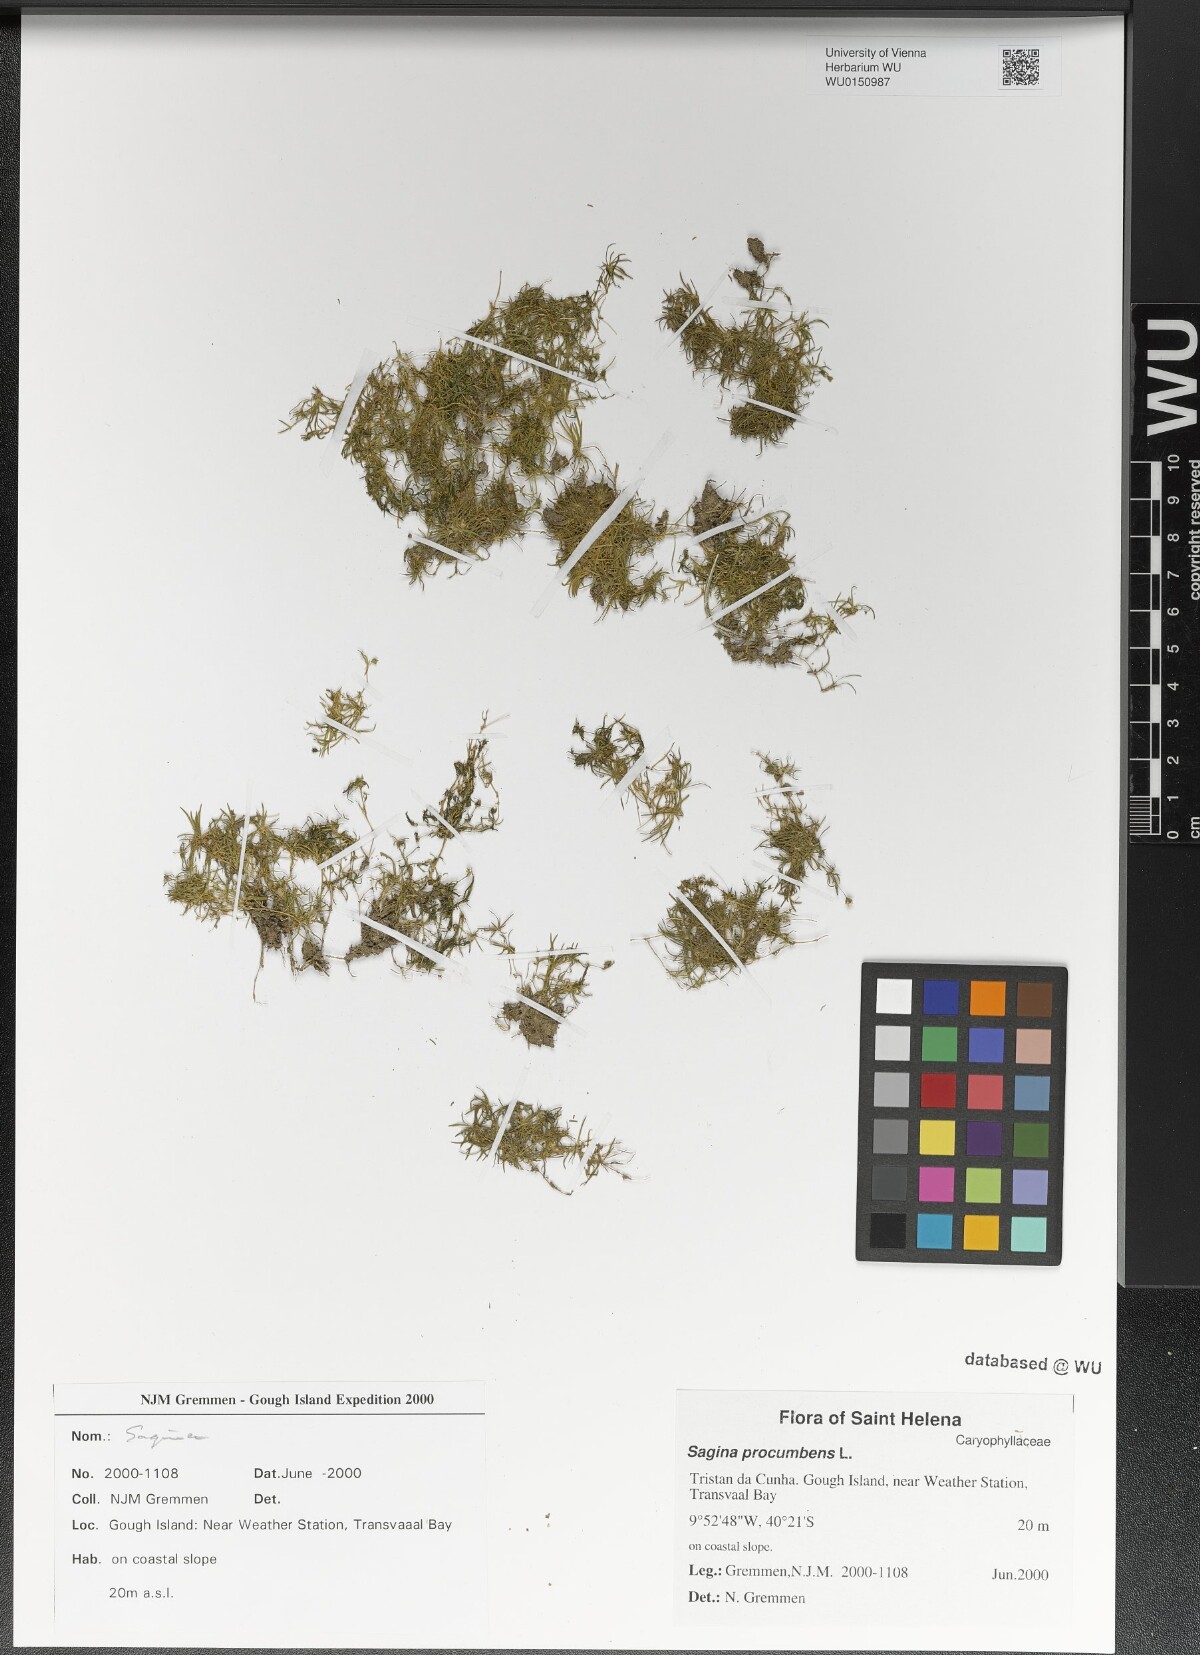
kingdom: Plantae
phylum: Tracheophyta
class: Magnoliopsida
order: Caryophyllales
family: Caryophyllaceae
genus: Sagina
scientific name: Sagina procumbens
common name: Procumbent pearlwort
